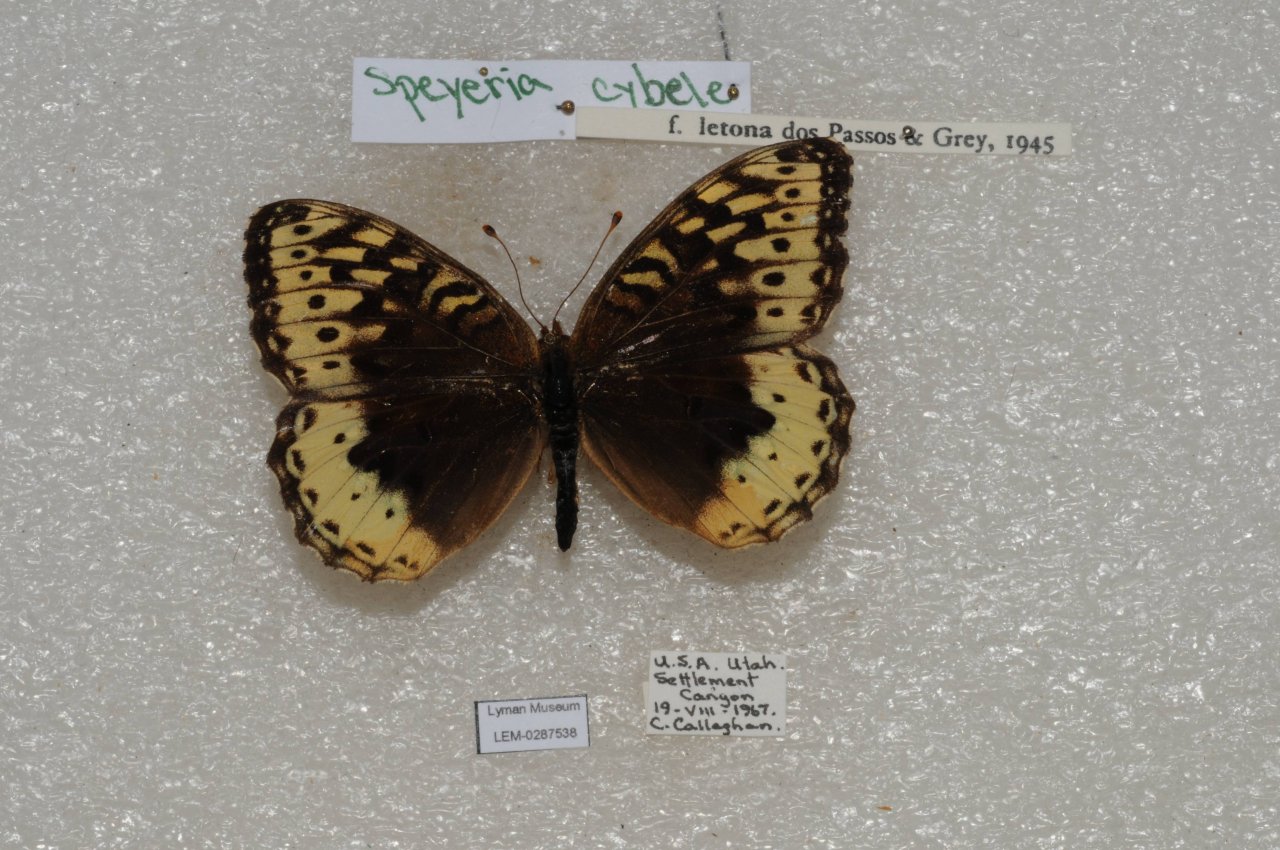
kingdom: Animalia
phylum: Arthropoda
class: Insecta
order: Lepidoptera
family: Nymphalidae
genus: Speyeria
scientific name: Speyeria cybele
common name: Great Spangled Fritillary
